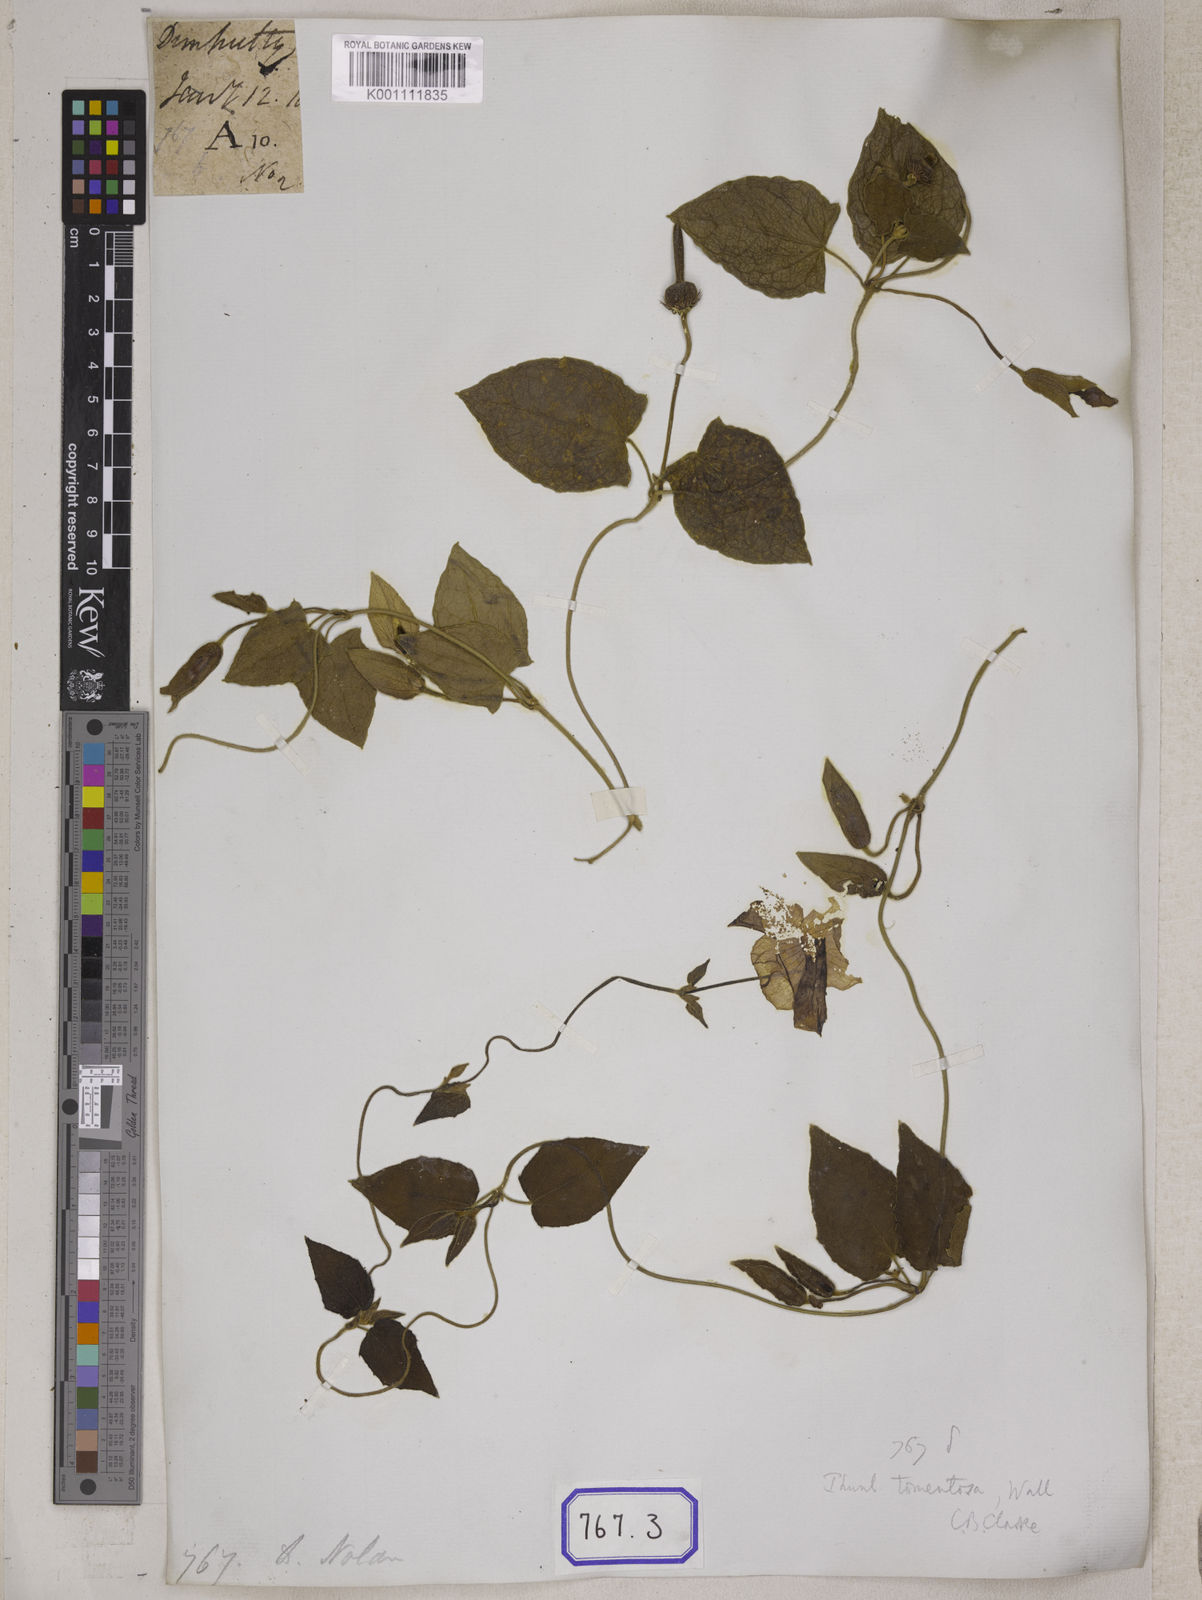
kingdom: Plantae
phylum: Tracheophyta
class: Magnoliopsida
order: Lamiales
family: Acanthaceae
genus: Thunbergia
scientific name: Thunbergia fragrans
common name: Whitelady
